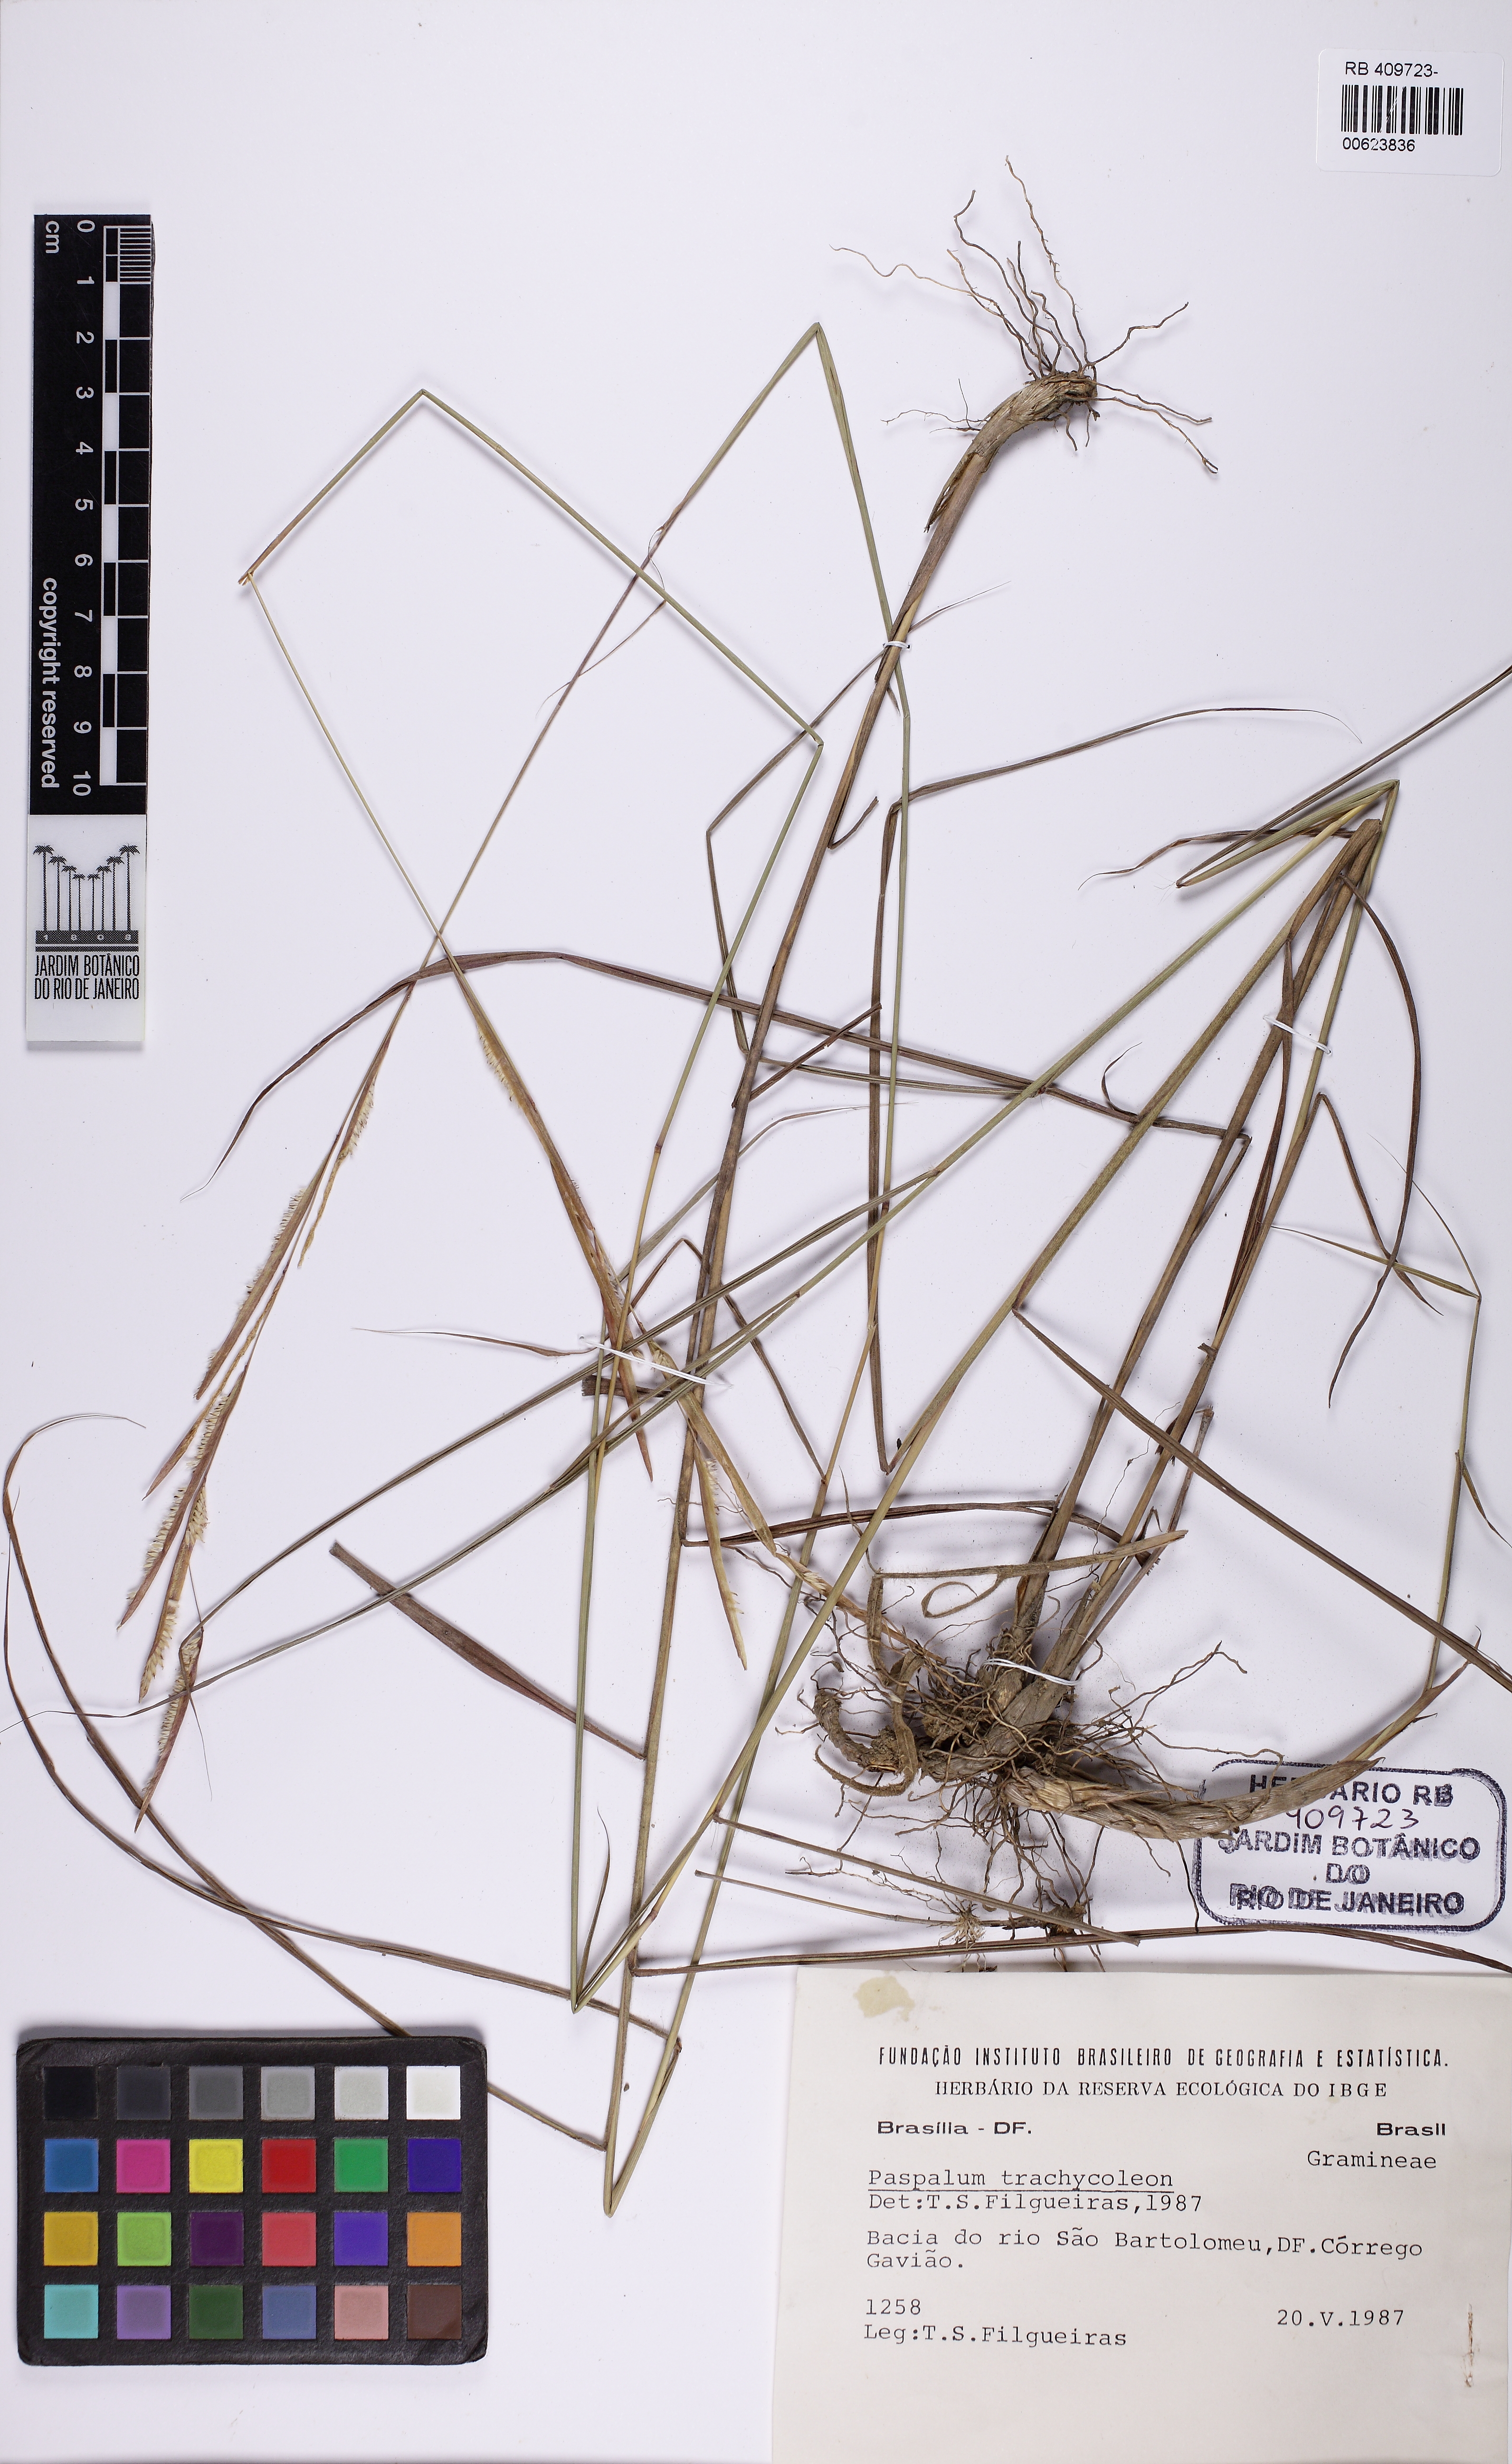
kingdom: Plantae
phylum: Tracheophyta
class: Liliopsida
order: Poales
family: Poaceae
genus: Paspalum
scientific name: Paspalum trachycoleon
